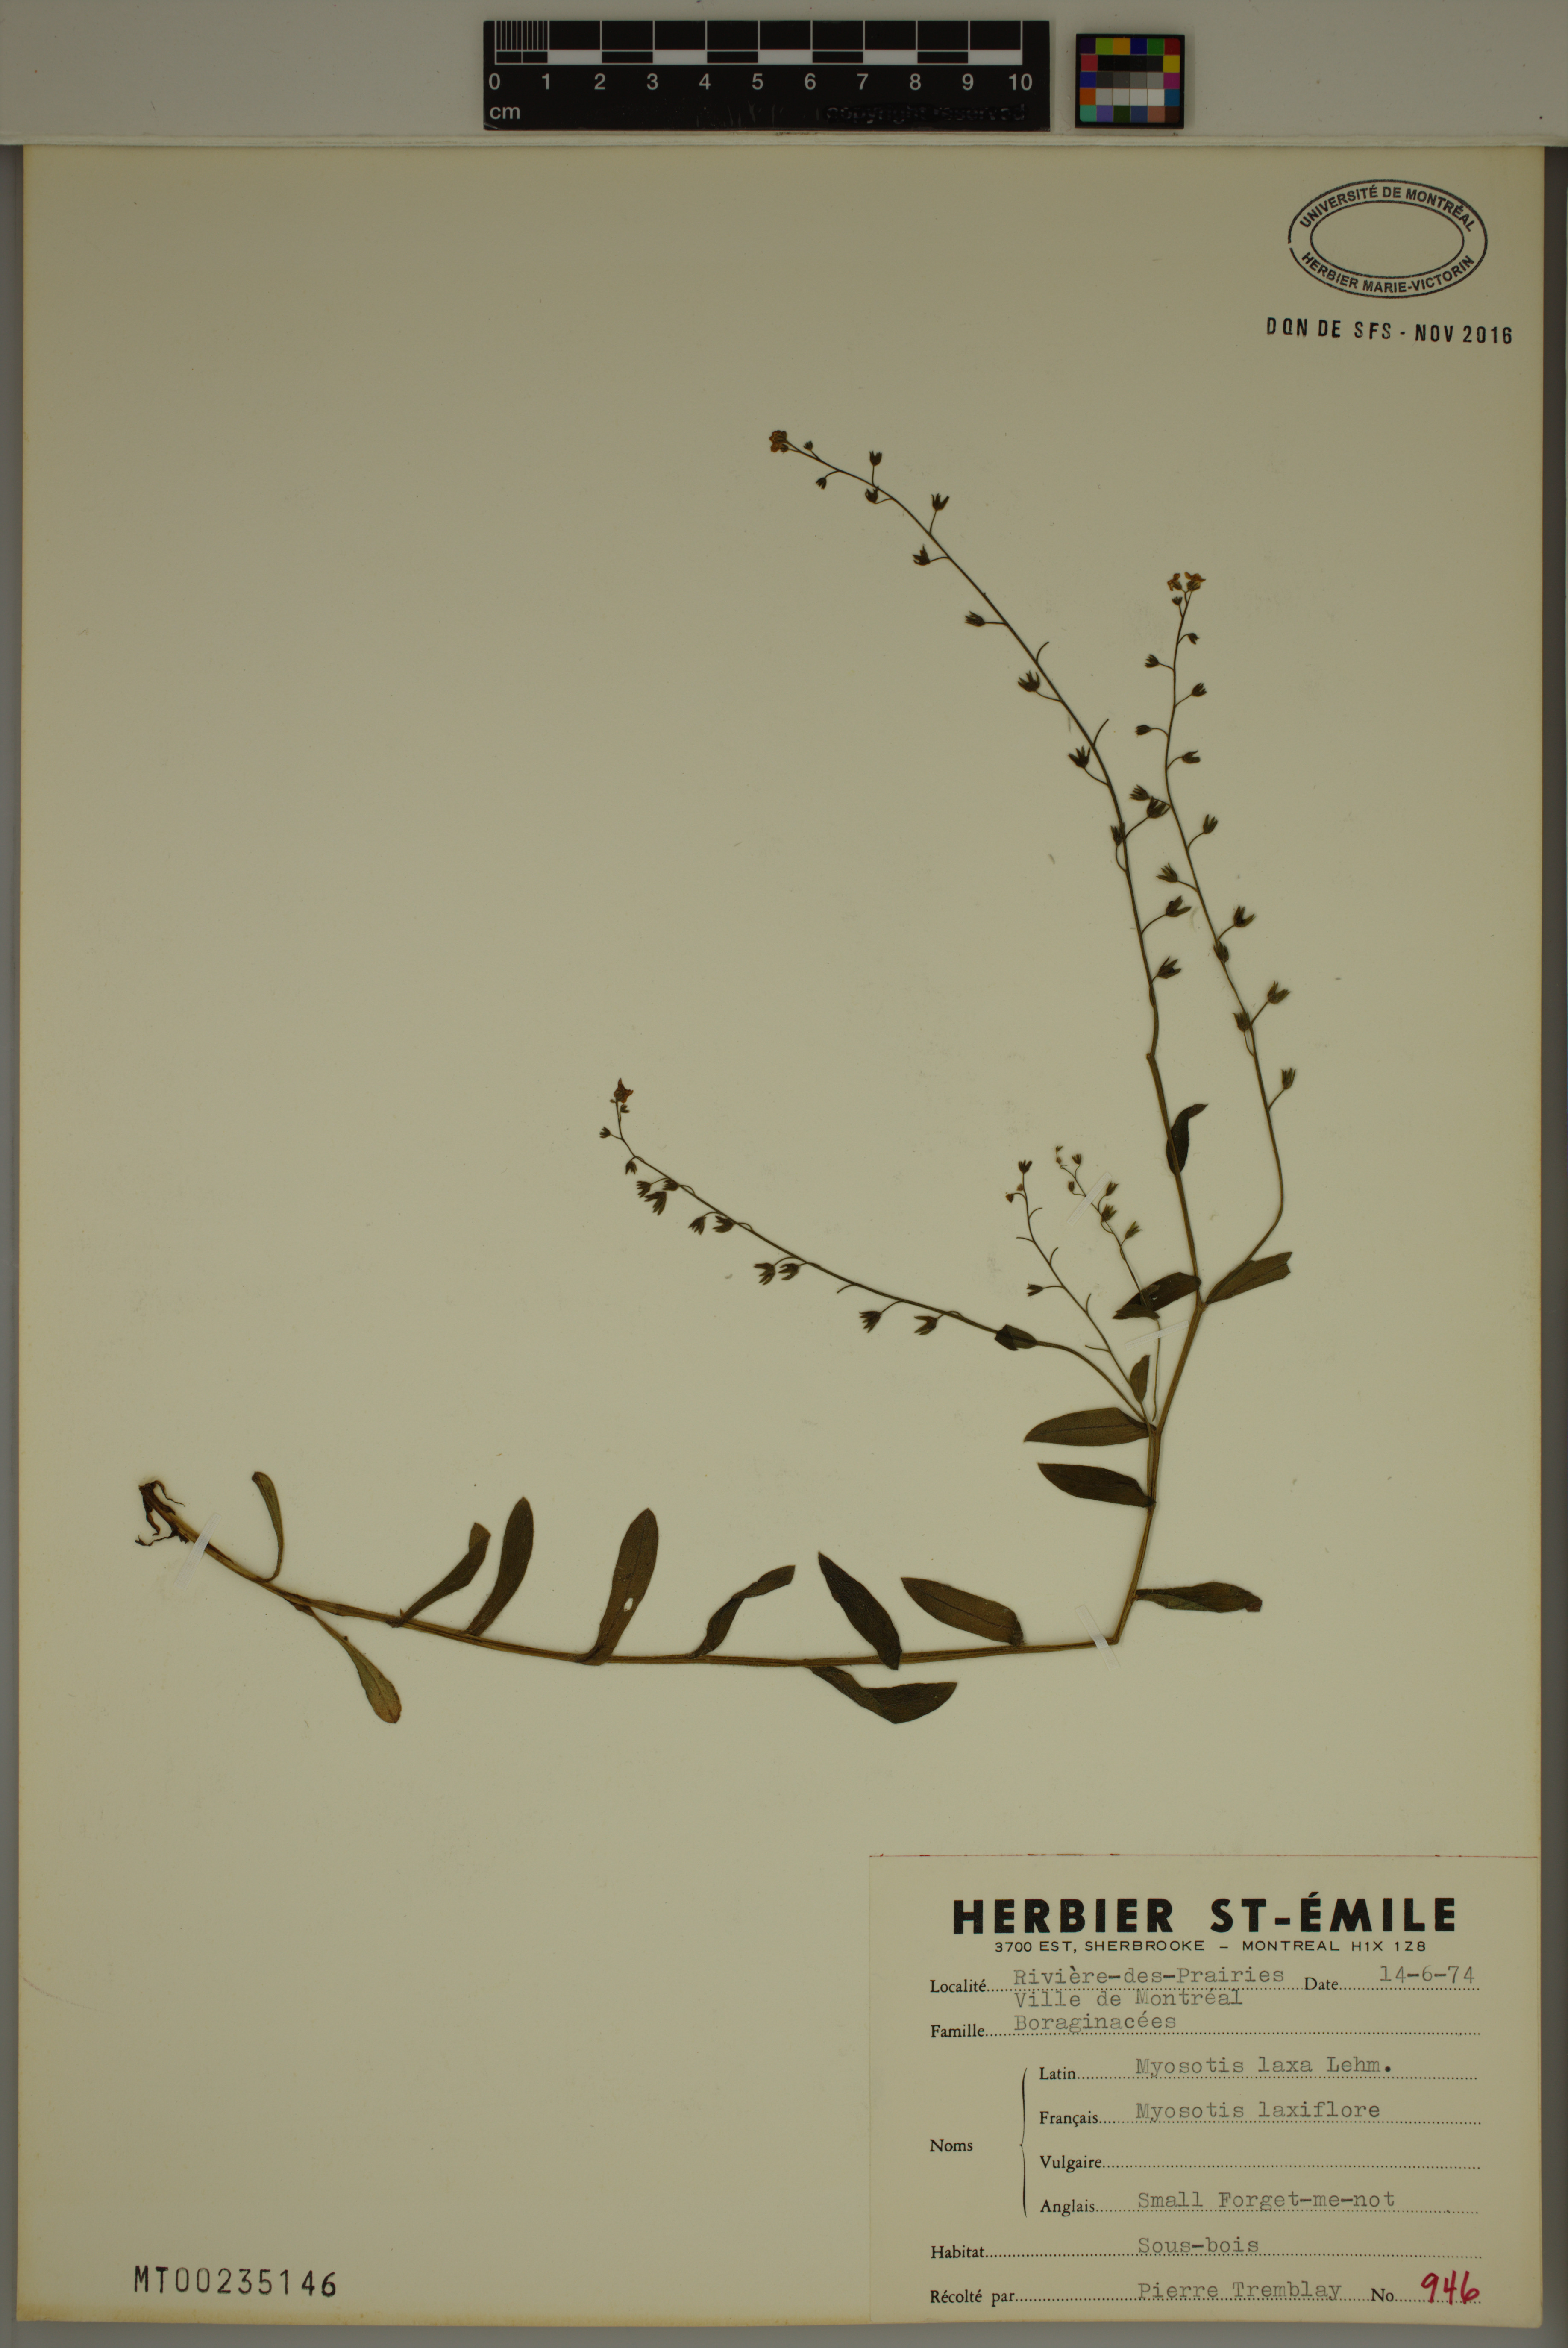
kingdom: Plantae
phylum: Tracheophyta
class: Magnoliopsida
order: Boraginales
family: Boraginaceae
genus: Myosotis
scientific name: Myosotis laxa
